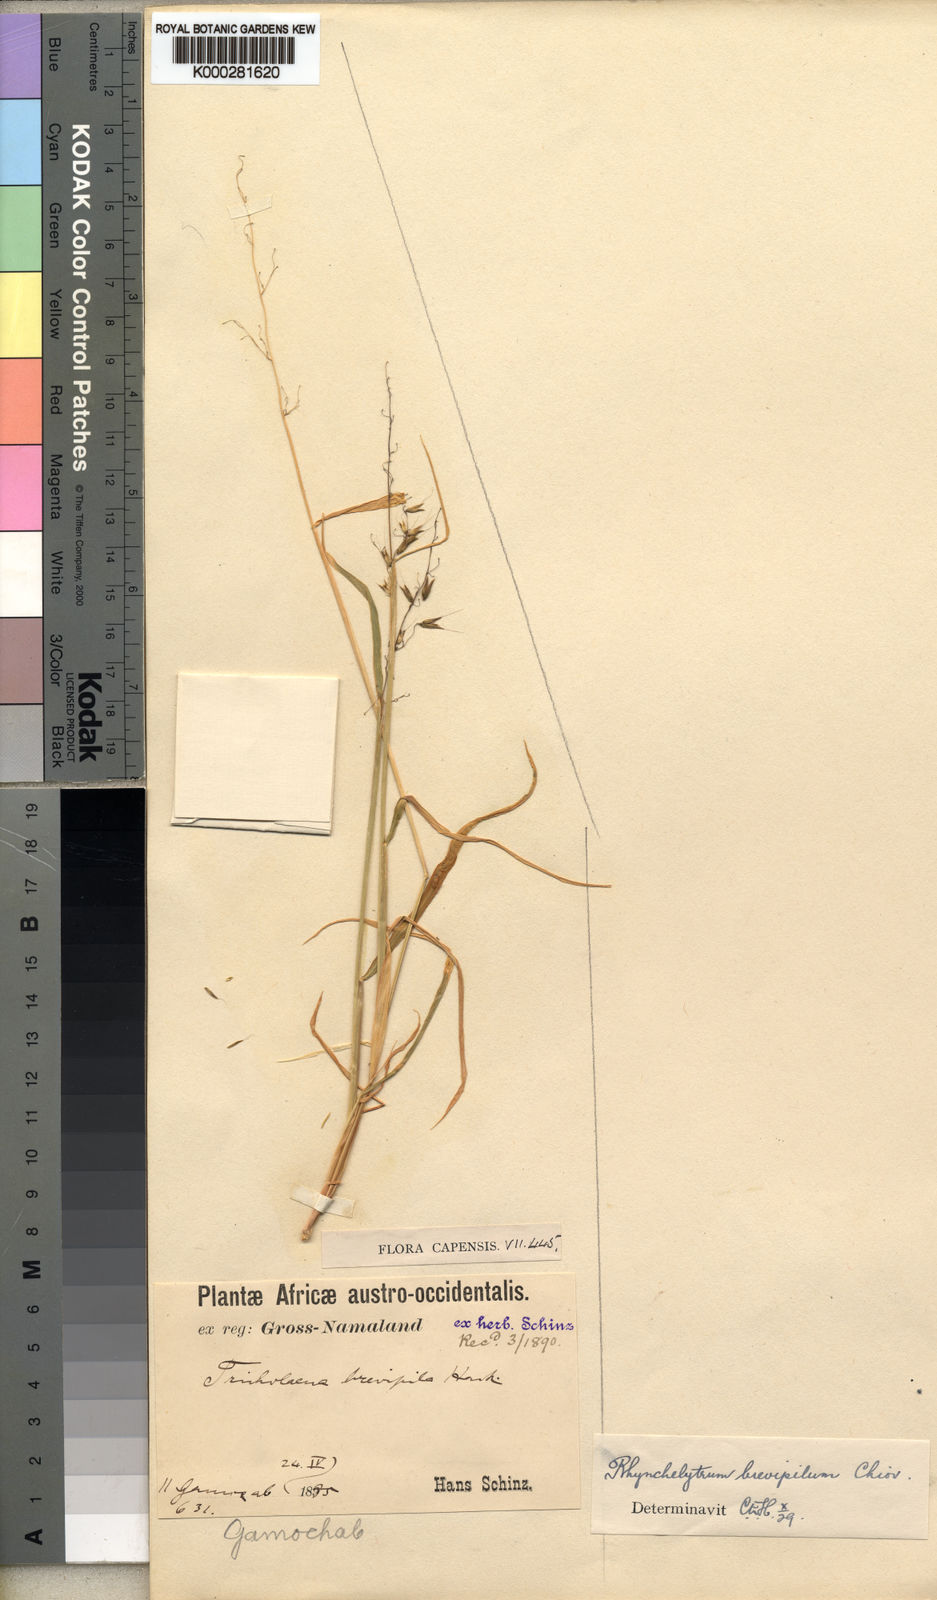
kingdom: Plantae
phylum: Tracheophyta
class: Liliopsida
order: Poales
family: Poaceae
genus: Melinis
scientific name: Melinis repens
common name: Rose natal grass
